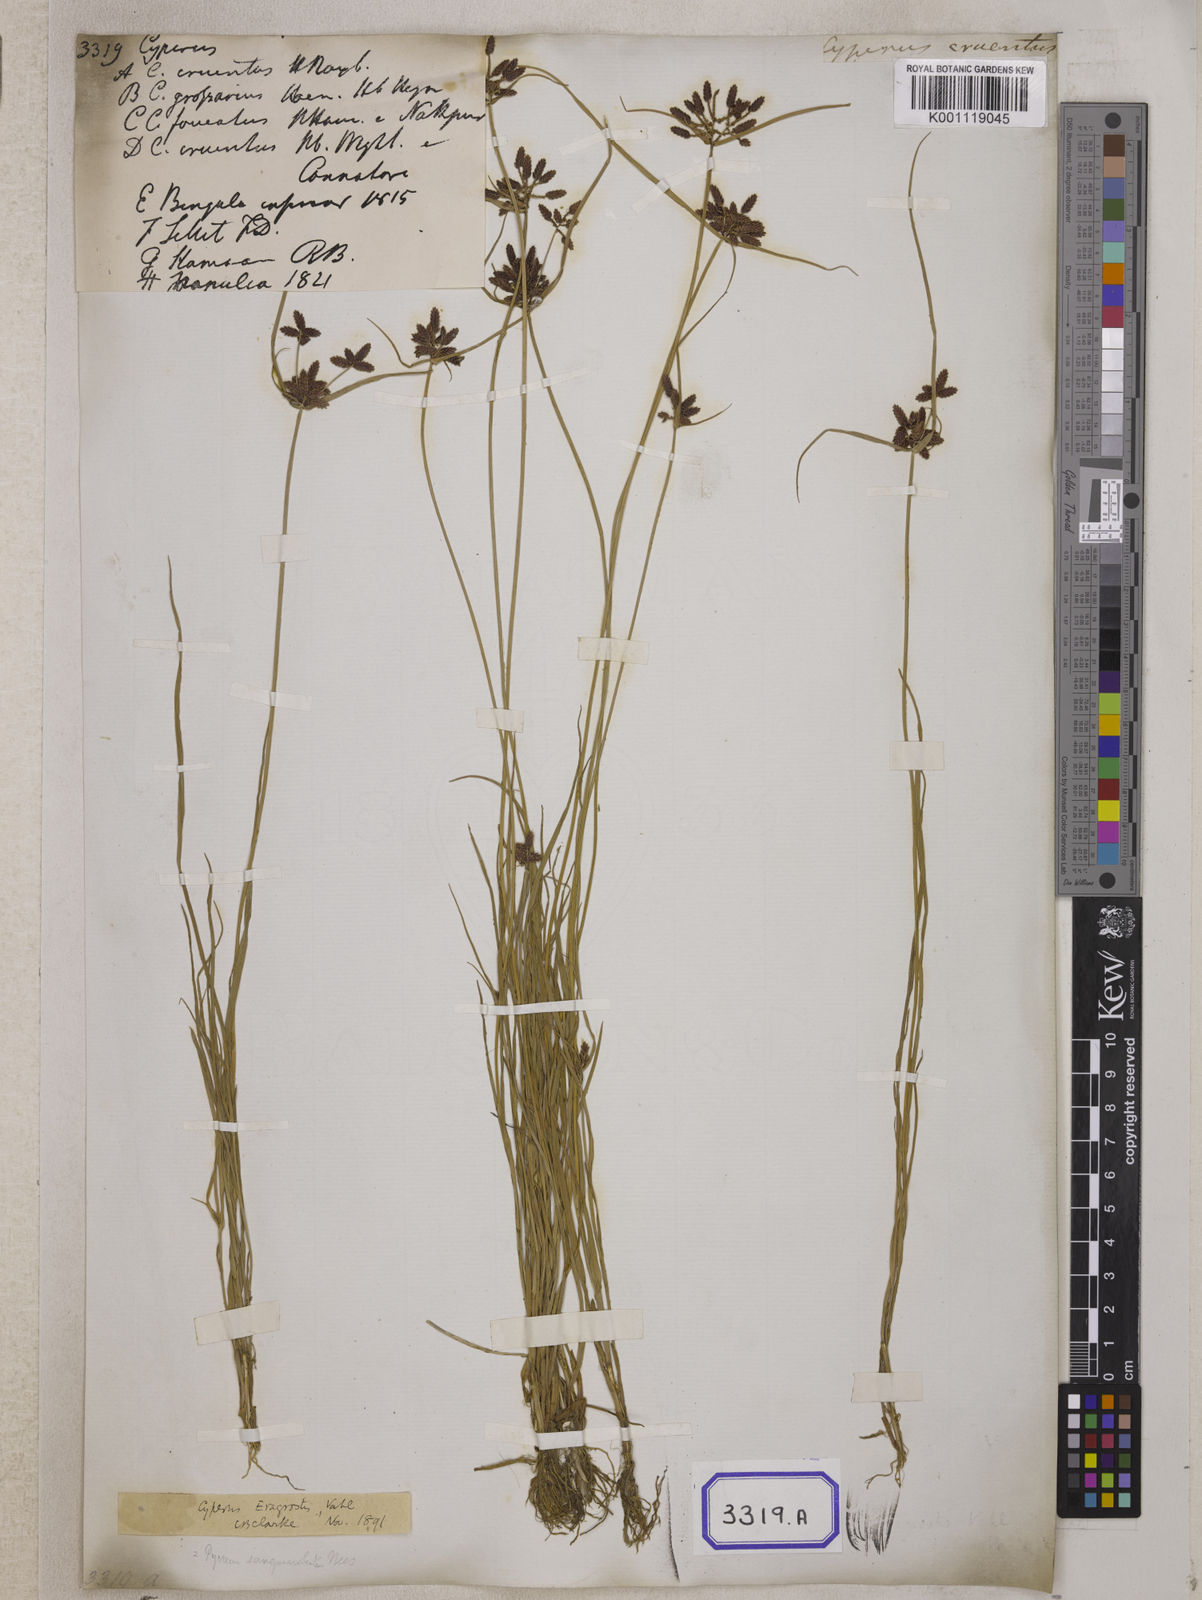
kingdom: Plantae
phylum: Tracheophyta
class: Liliopsida
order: Poales
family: Cyperaceae
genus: Cyperus
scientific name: Cyperus
